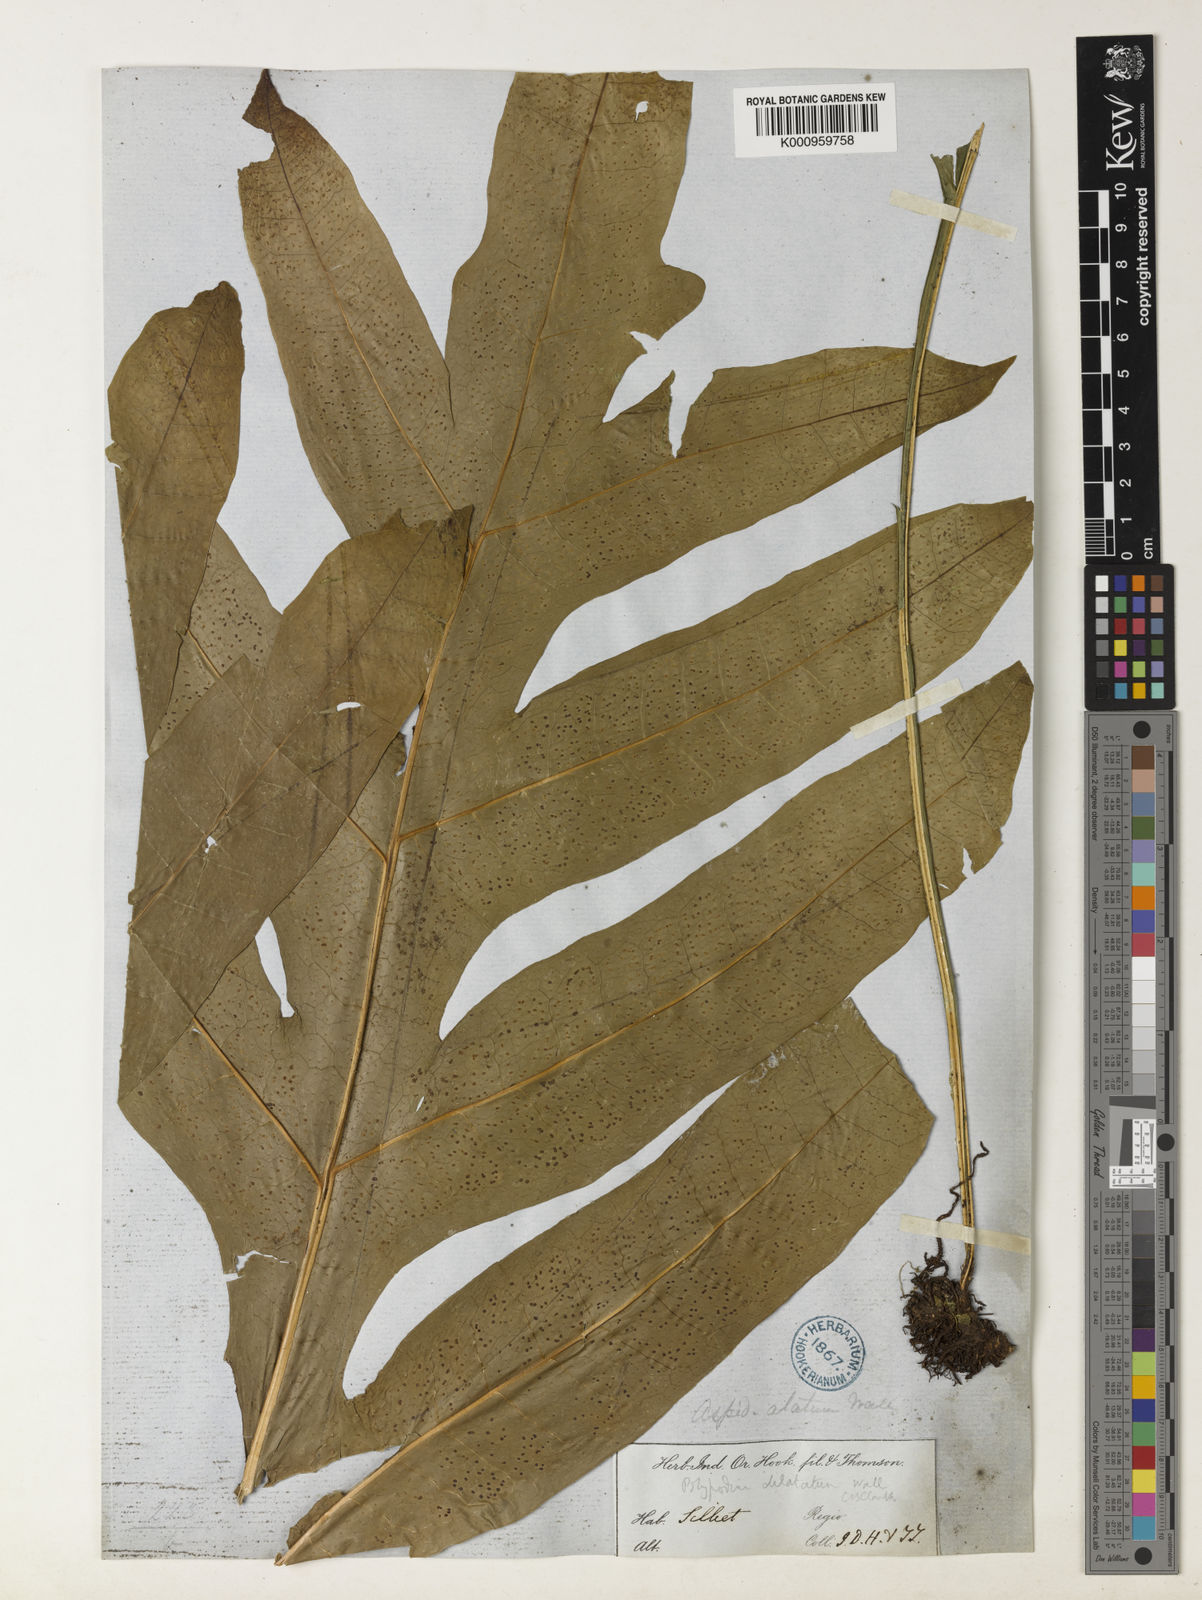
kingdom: Plantae
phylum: Tracheophyta
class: Polypodiopsida
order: Polypodiales
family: Polypodiaceae
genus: Leptochilus
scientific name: Leptochilus insignis
